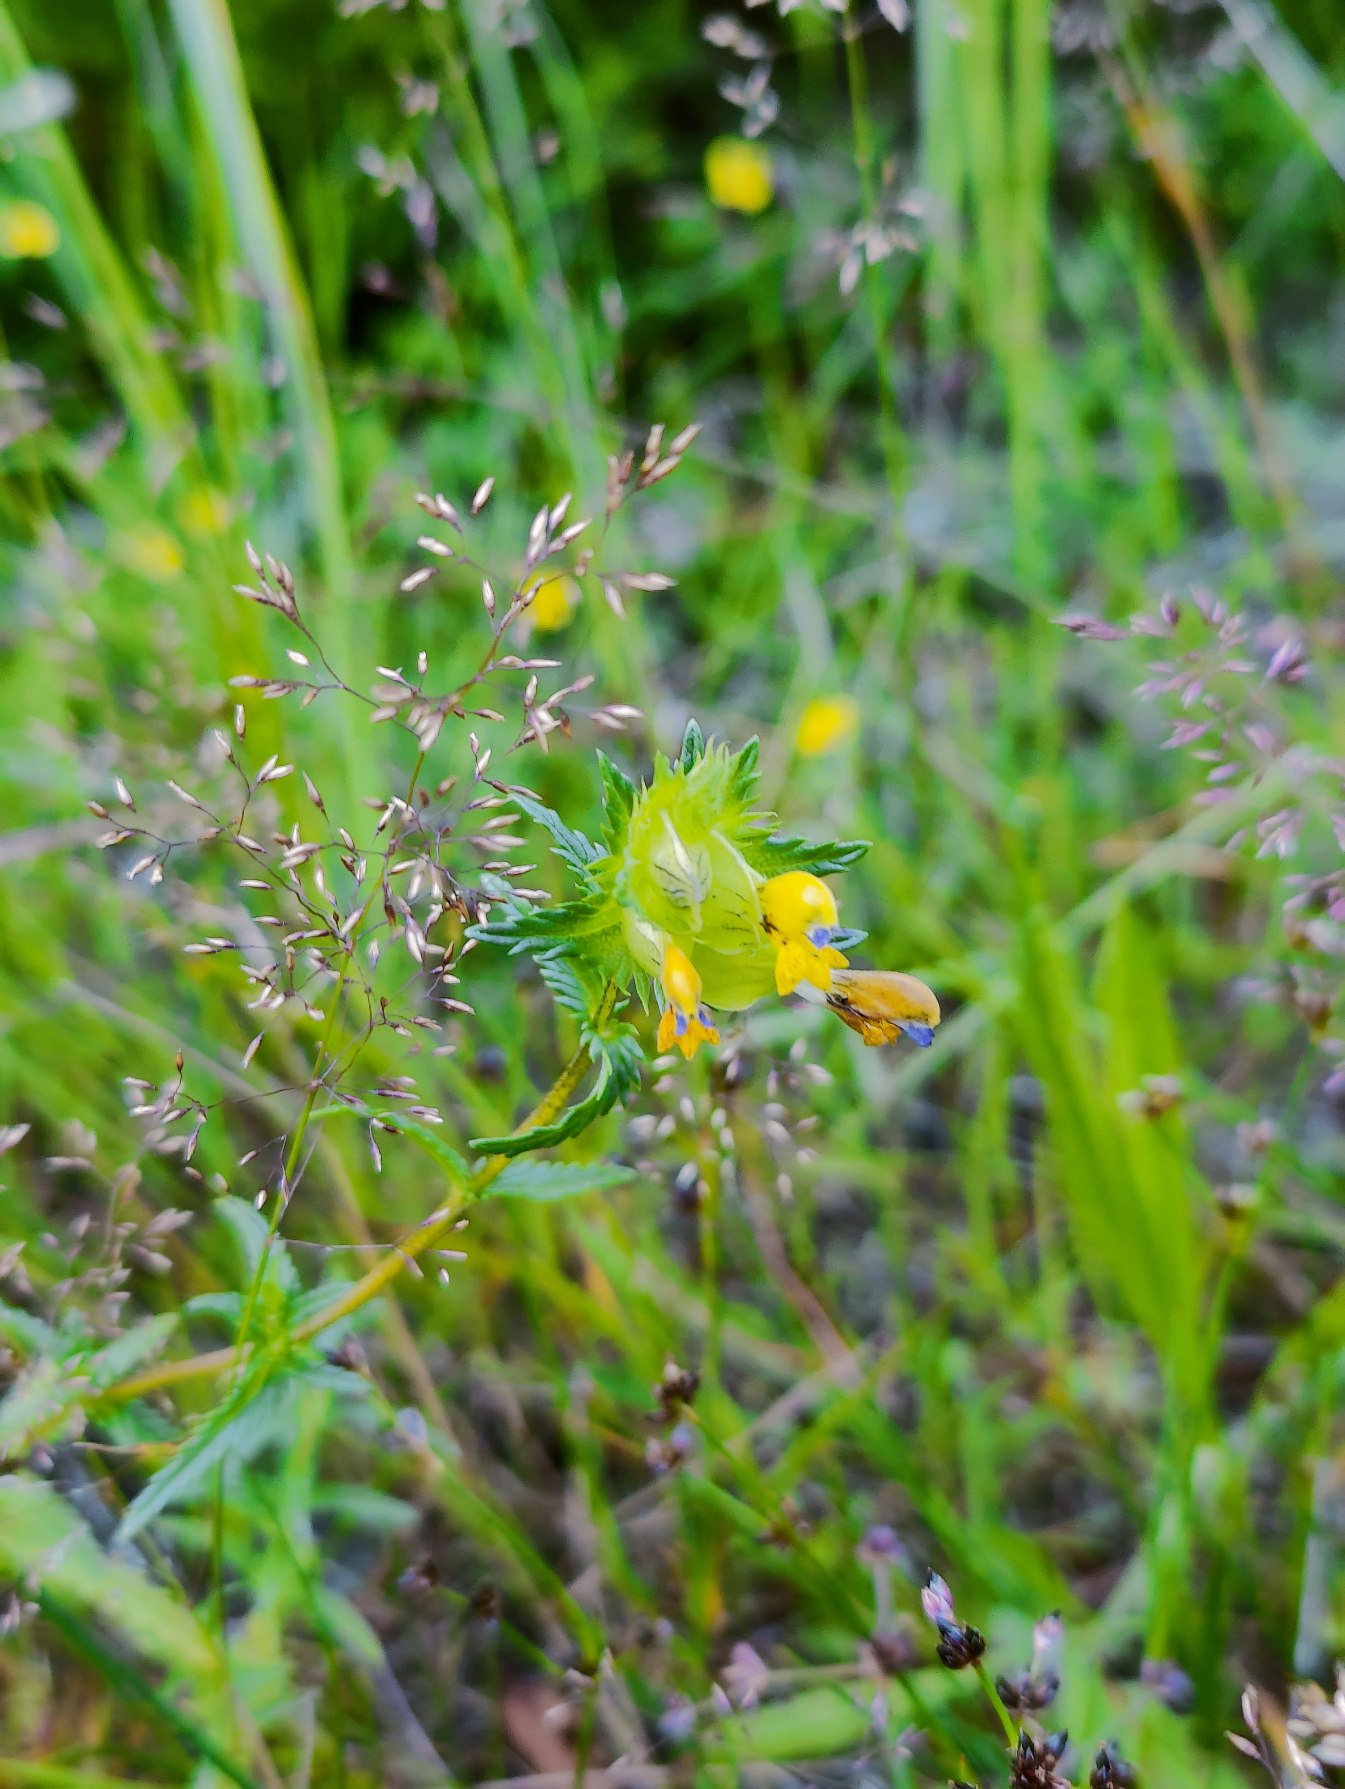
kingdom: Plantae
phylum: Tracheophyta
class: Magnoliopsida
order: Lamiales
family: Orobanchaceae
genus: Rhinanthus
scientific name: Rhinanthus
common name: Stor skjaller
